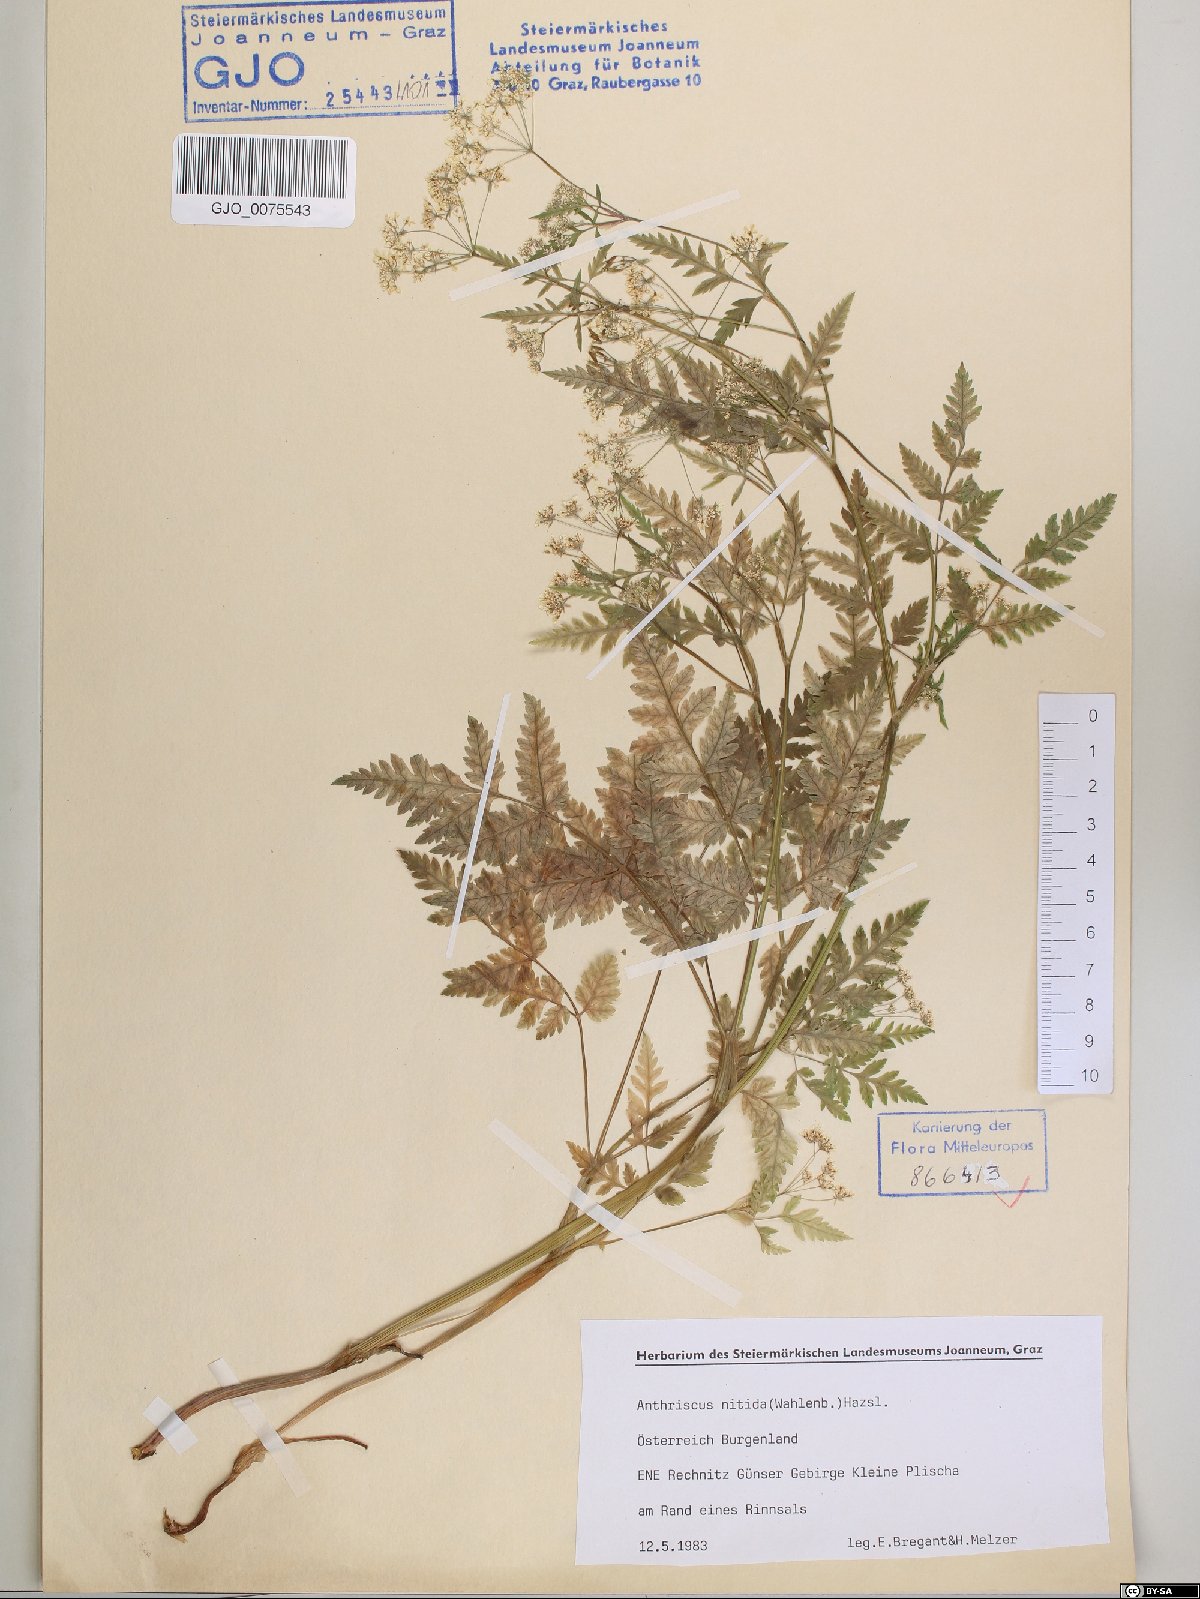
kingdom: Plantae
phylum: Tracheophyta
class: Magnoliopsida
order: Apiales
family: Apiaceae
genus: Anthriscus
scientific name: Anthriscus nitida
